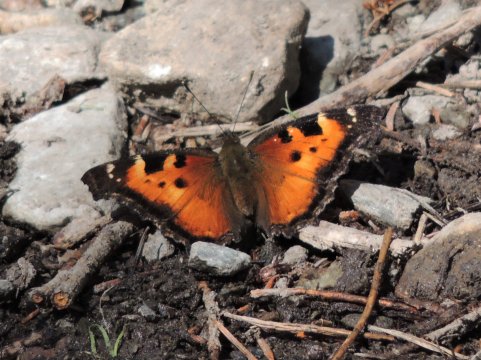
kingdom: Animalia
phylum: Arthropoda
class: Insecta
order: Lepidoptera
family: Nymphalidae
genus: Nymphalis
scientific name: Nymphalis californica
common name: California Tortoiseshell
